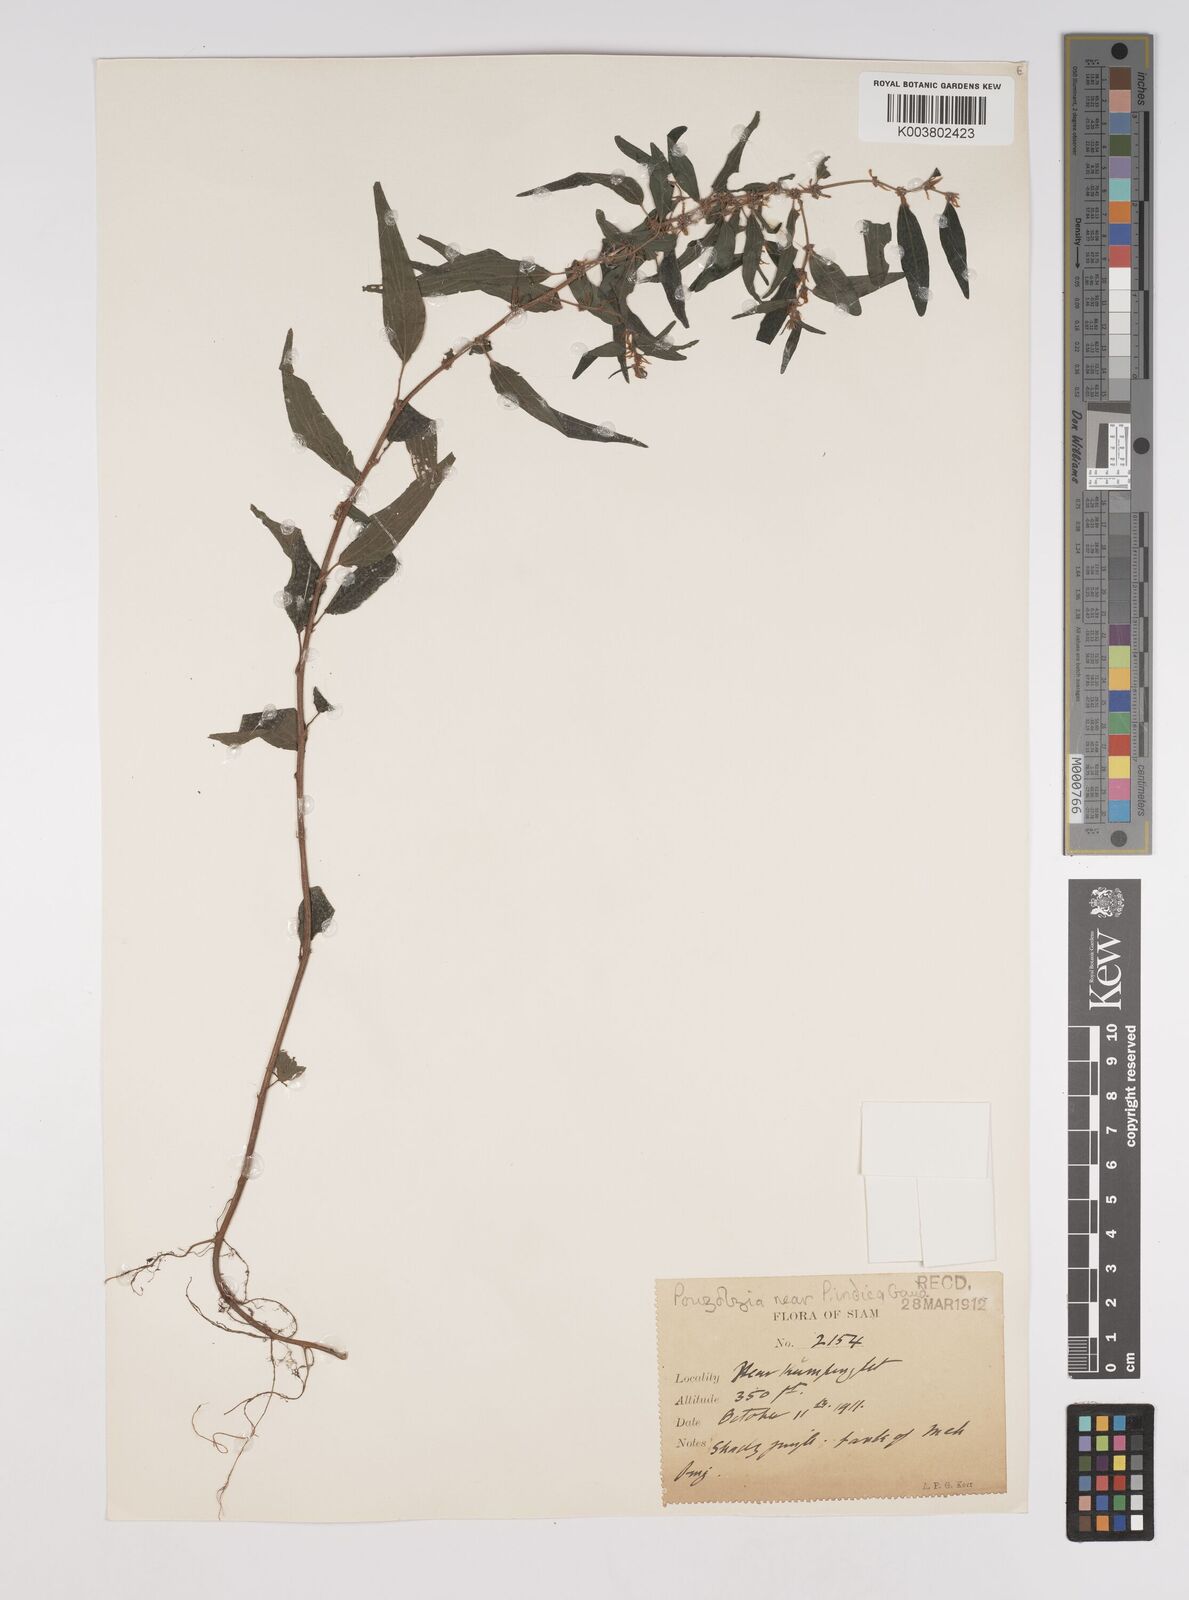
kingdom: Plantae
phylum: Tracheophyta
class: Magnoliopsida
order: Rosales
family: Urticaceae
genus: Pouzolzia
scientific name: Pouzolzia zeylanica
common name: Graceful pouzolzsbush
